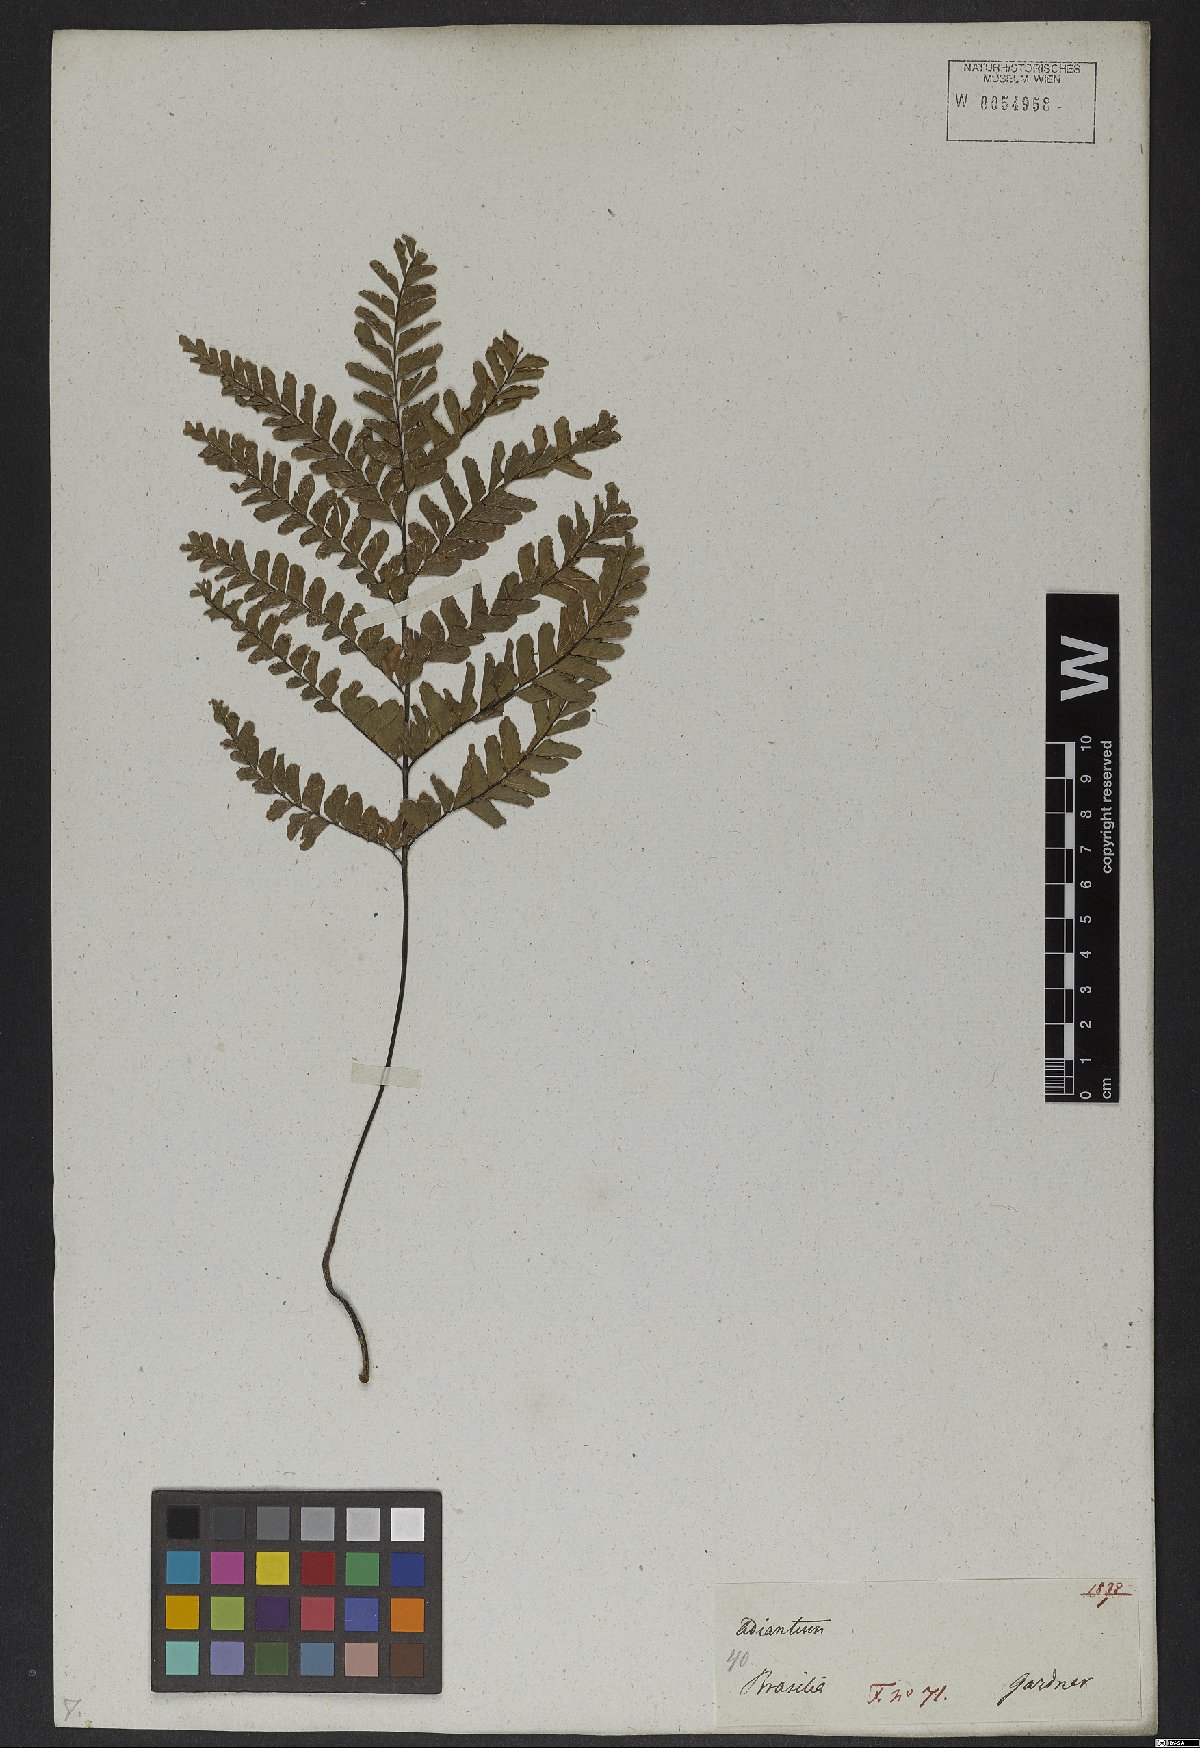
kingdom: Plantae
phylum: Tracheophyta
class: Polypodiopsida
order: Polypodiales
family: Pteridaceae
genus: Adiantum
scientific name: Adiantum serratodentatum
